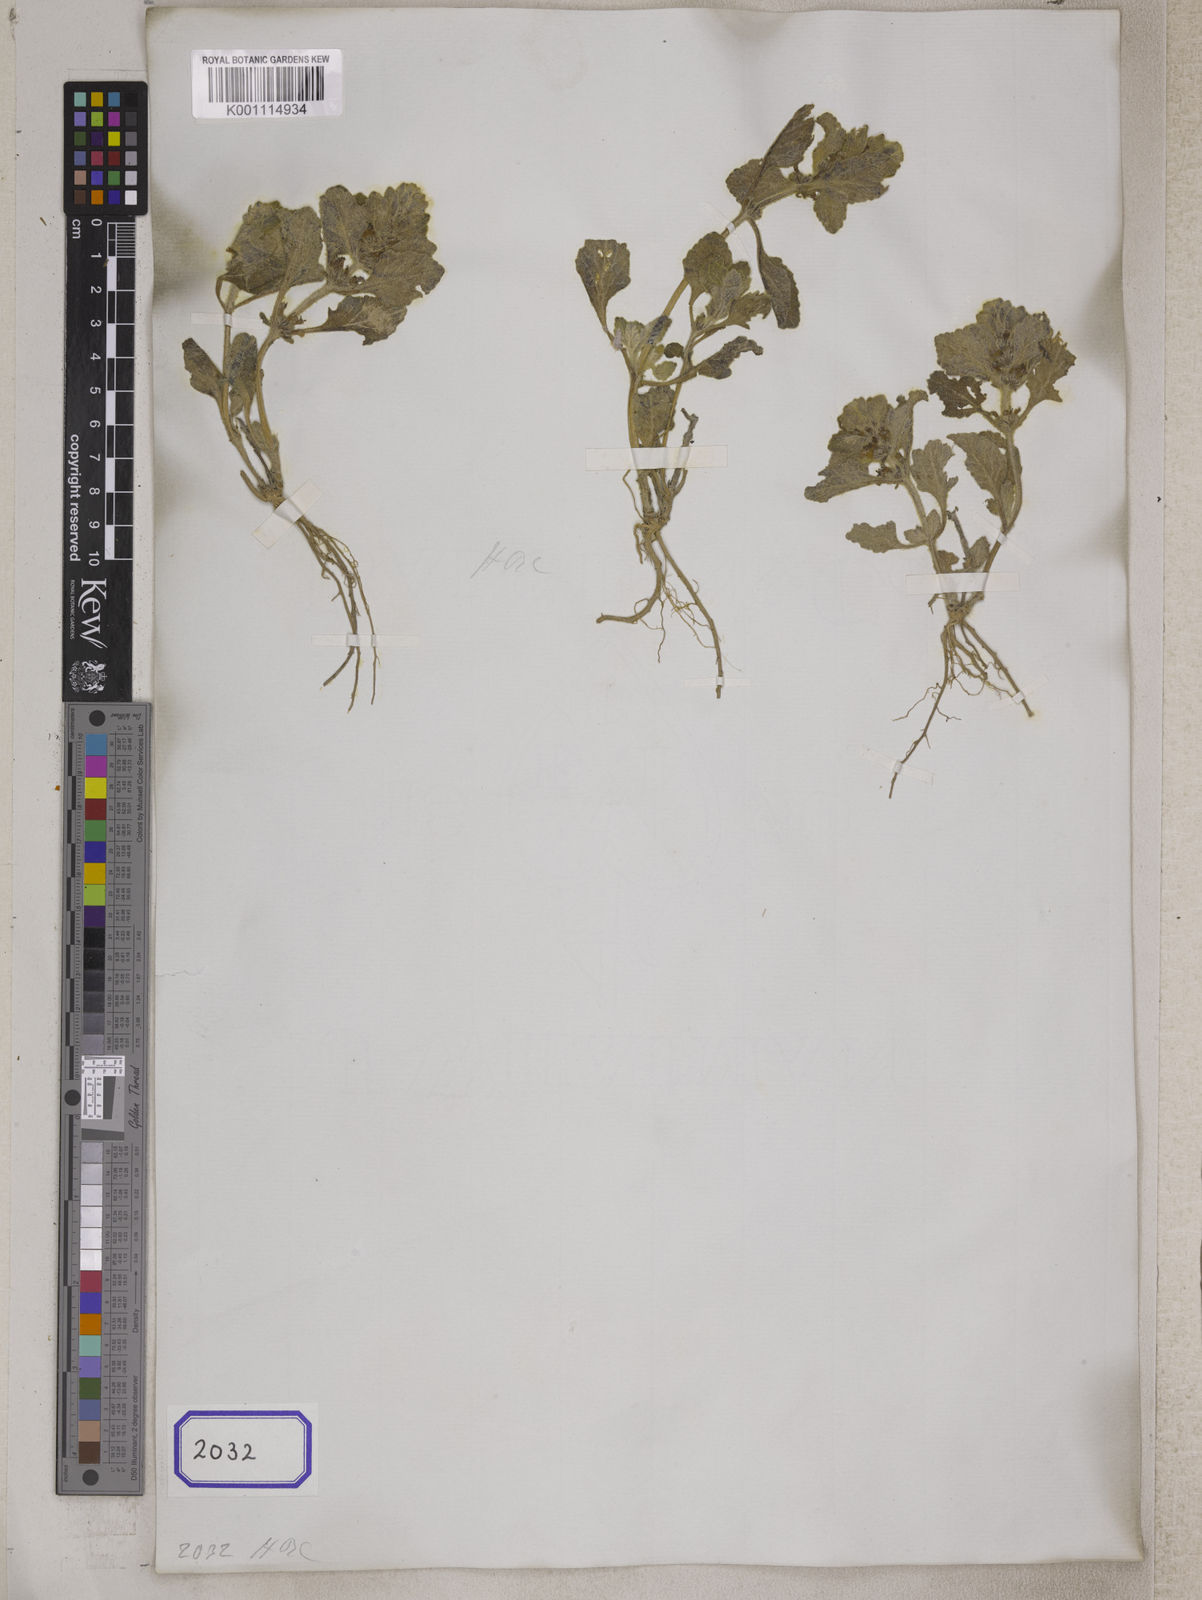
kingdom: Plantae
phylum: Tracheophyta
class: Magnoliopsida
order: Lamiales
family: Lamiaceae
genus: Ajuga
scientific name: Ajuga
